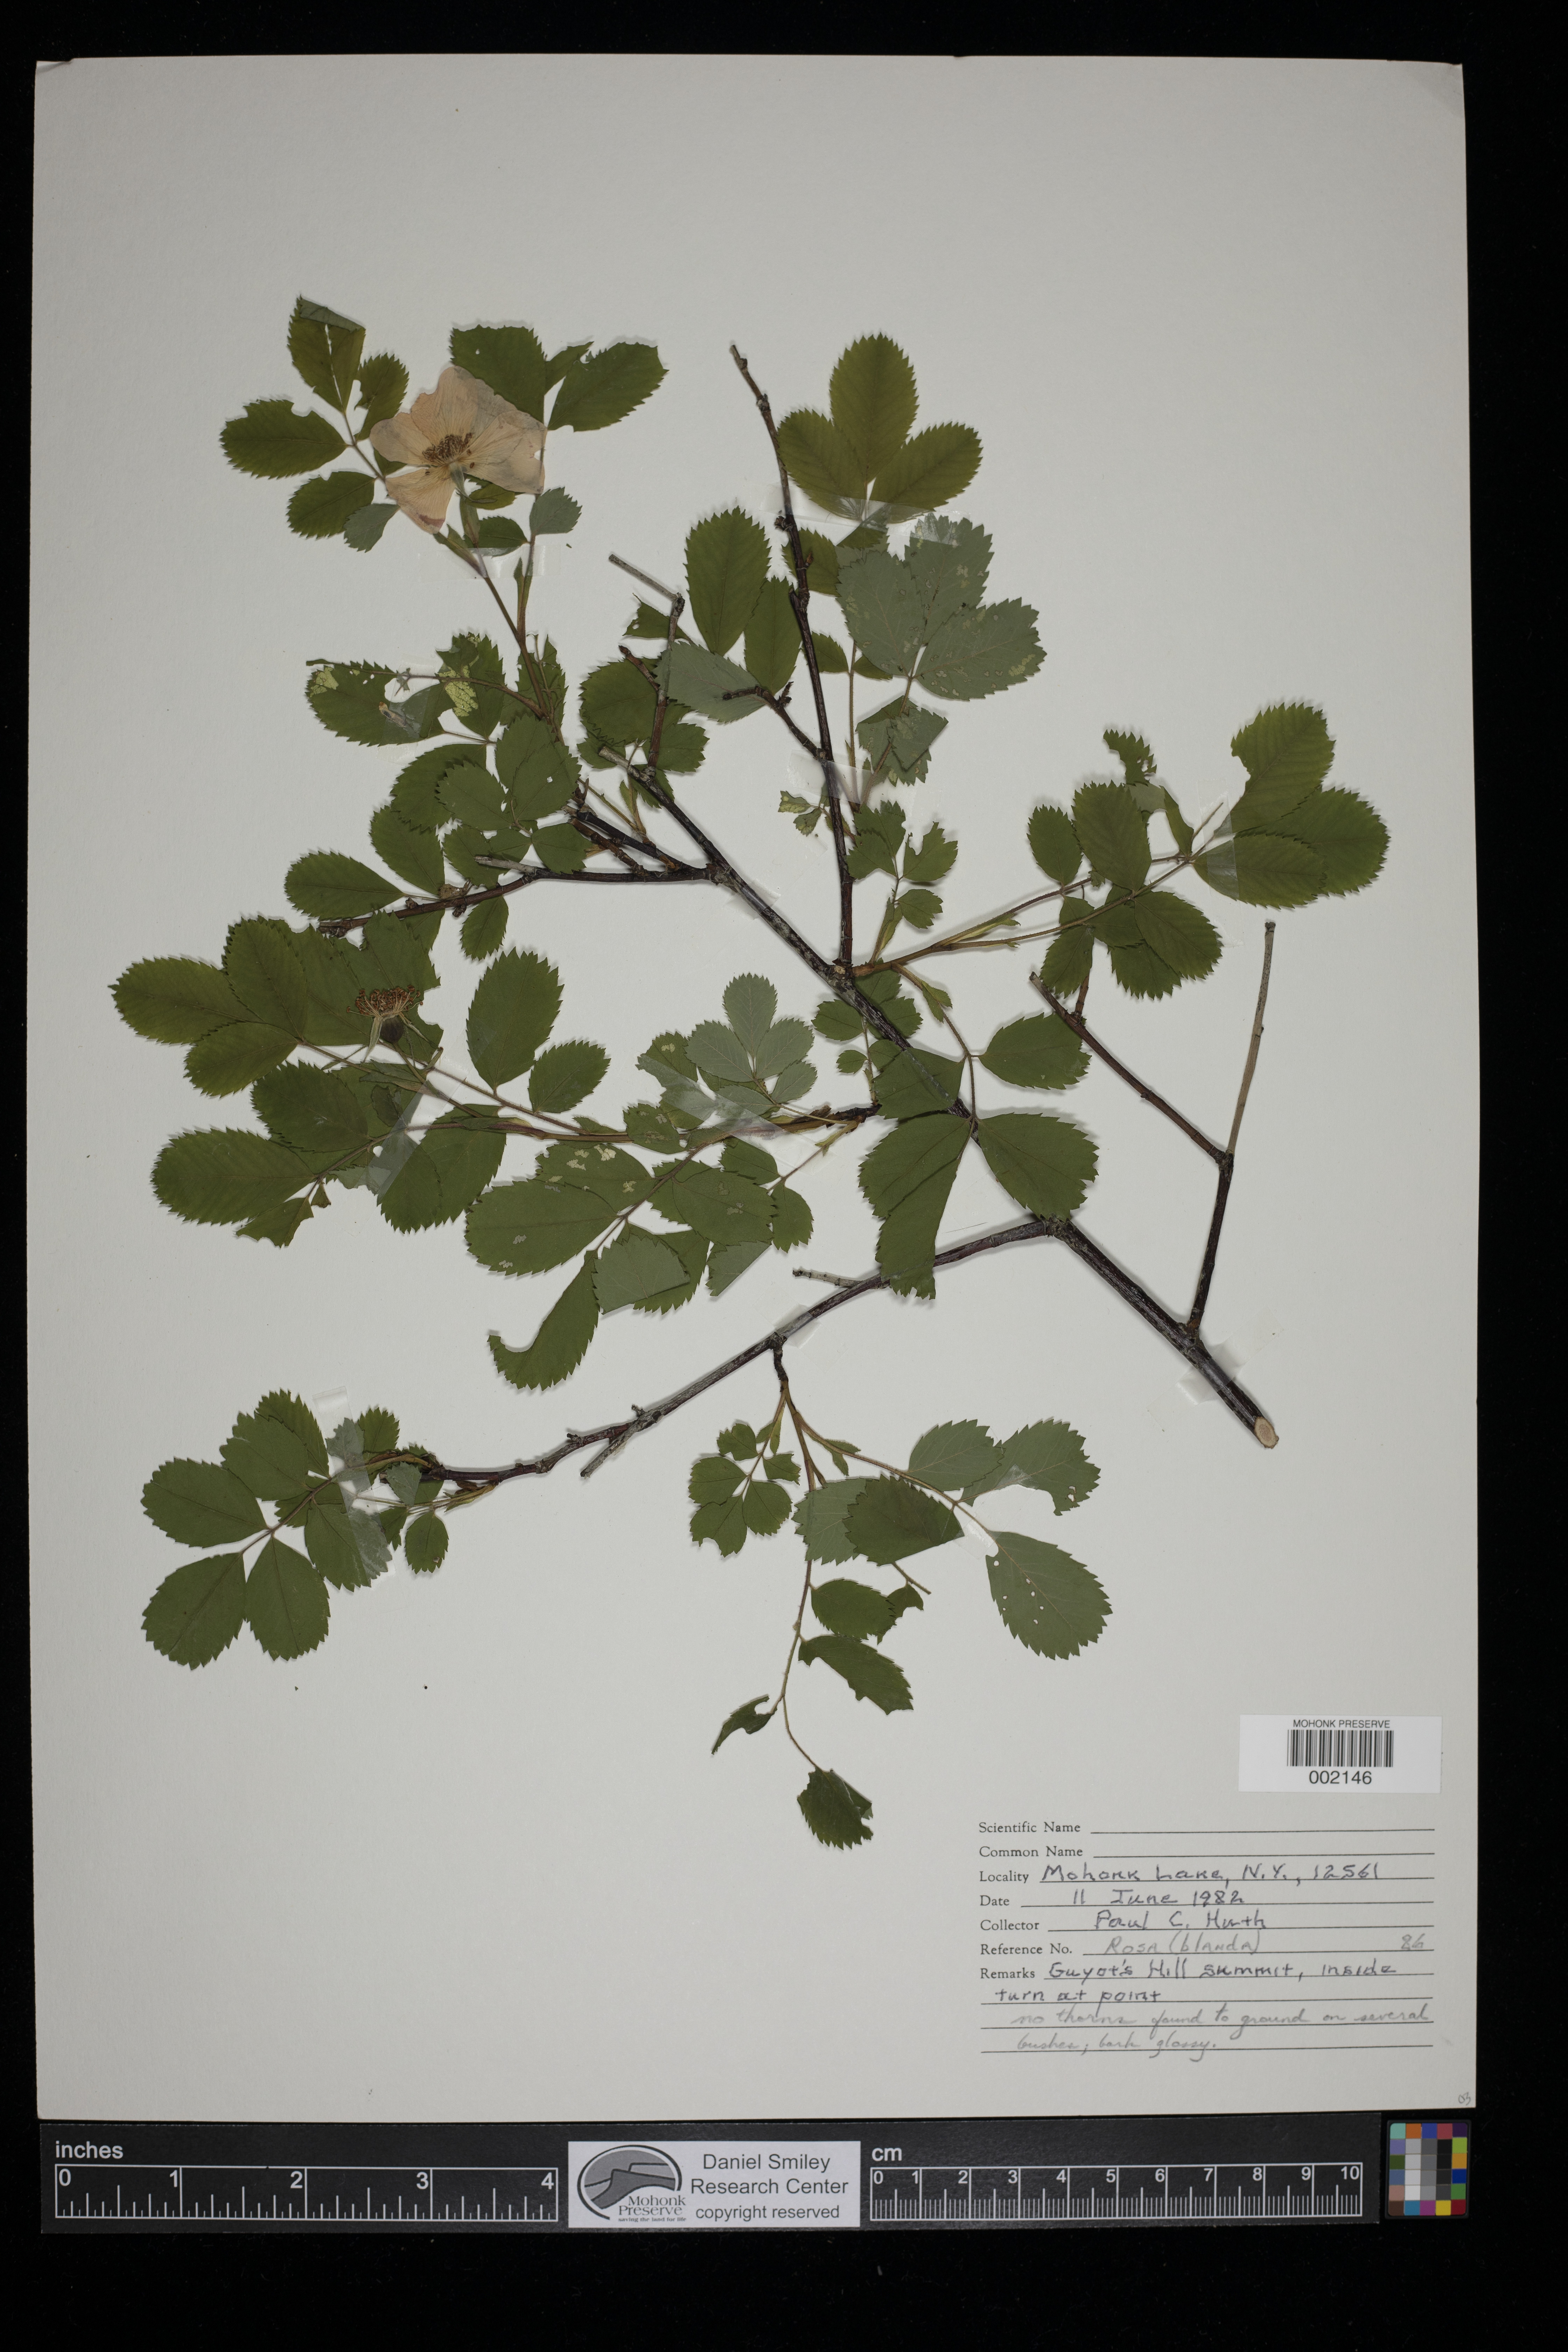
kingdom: Plantae
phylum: Tracheophyta
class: Magnoliopsida
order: Rosales
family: Rosaceae
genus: Rosa
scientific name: Rosa blanda
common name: Smooth rose
